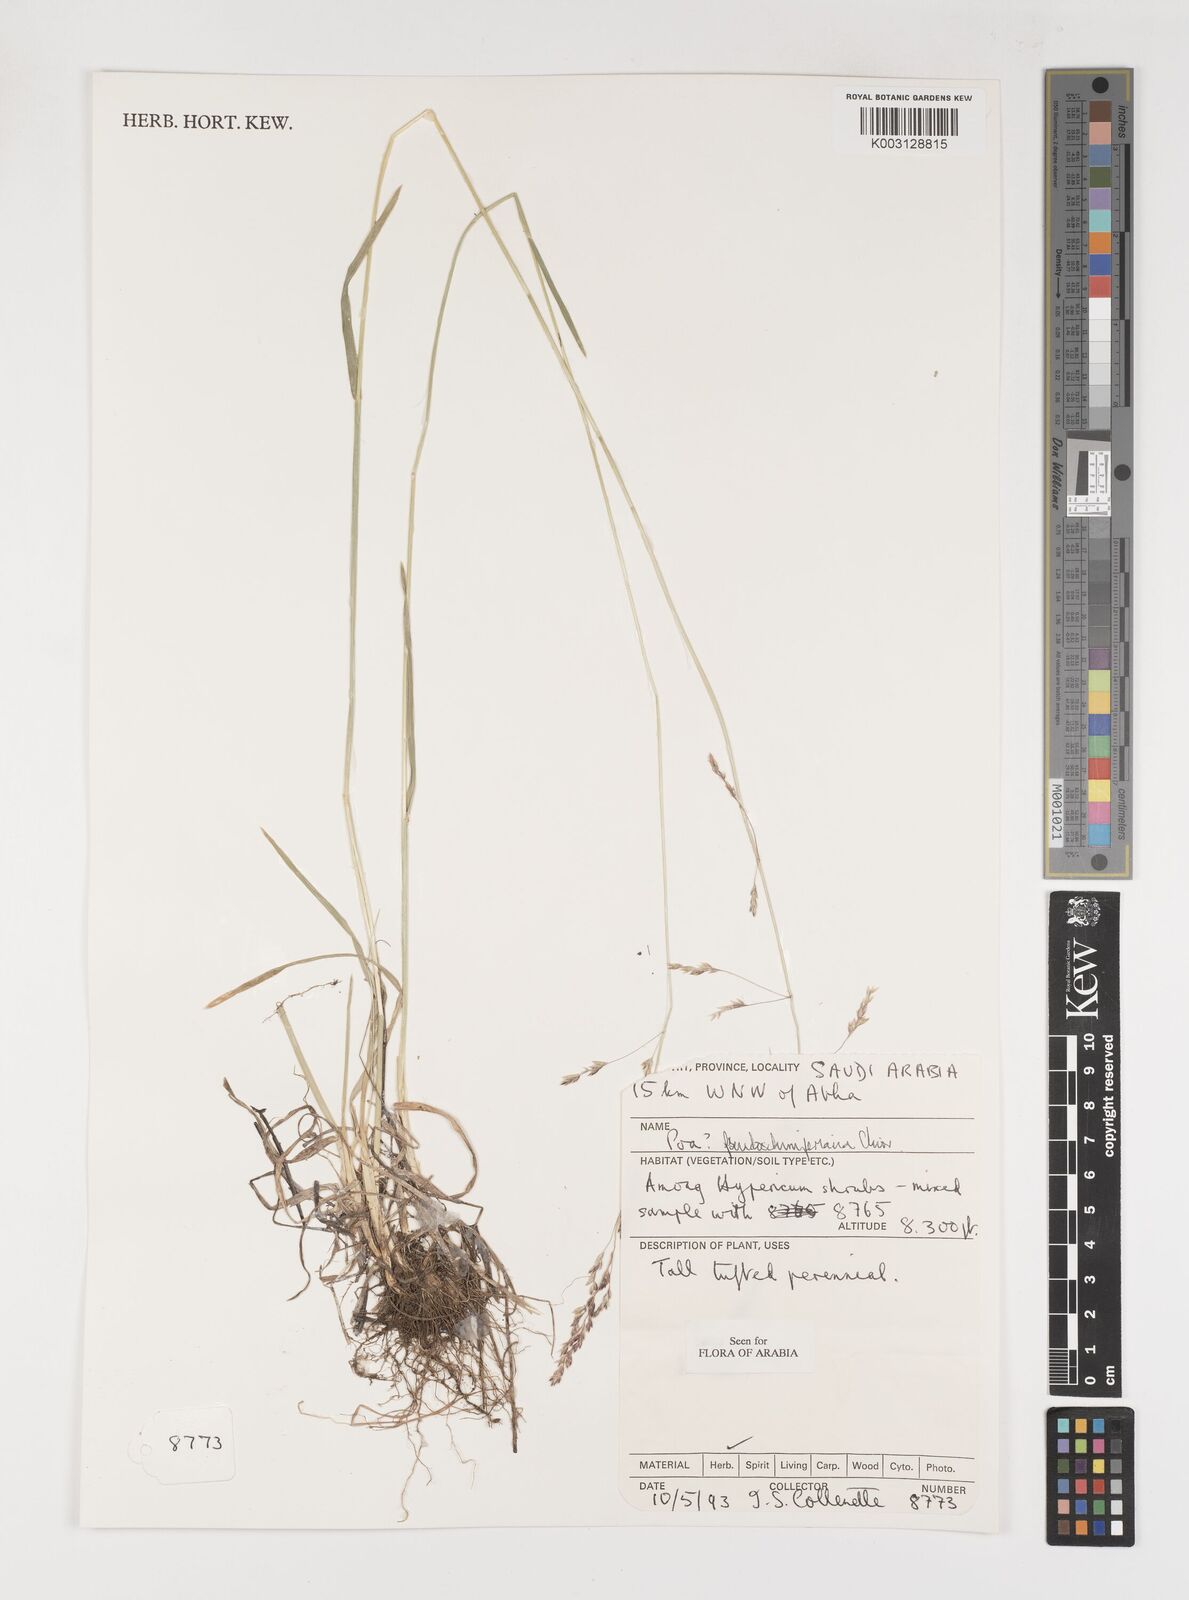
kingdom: Plantae
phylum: Tracheophyta
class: Liliopsida
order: Poales
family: Poaceae
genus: Poa
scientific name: Poa pseudoschimperiana
